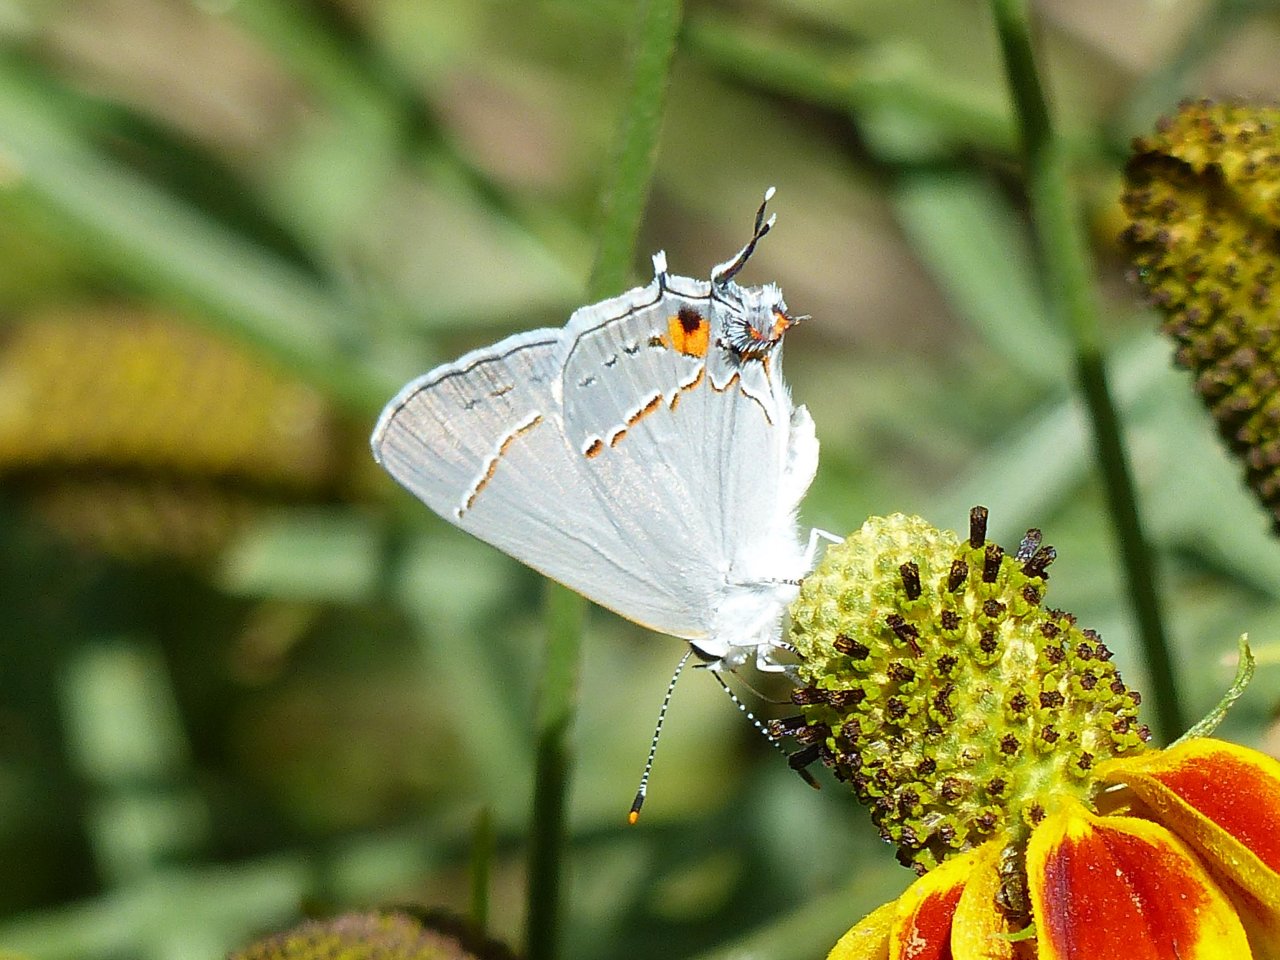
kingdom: Animalia
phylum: Arthropoda
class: Insecta
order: Lepidoptera
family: Lycaenidae
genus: Strymon
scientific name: Strymon melinus
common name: Gray Hairstreak
